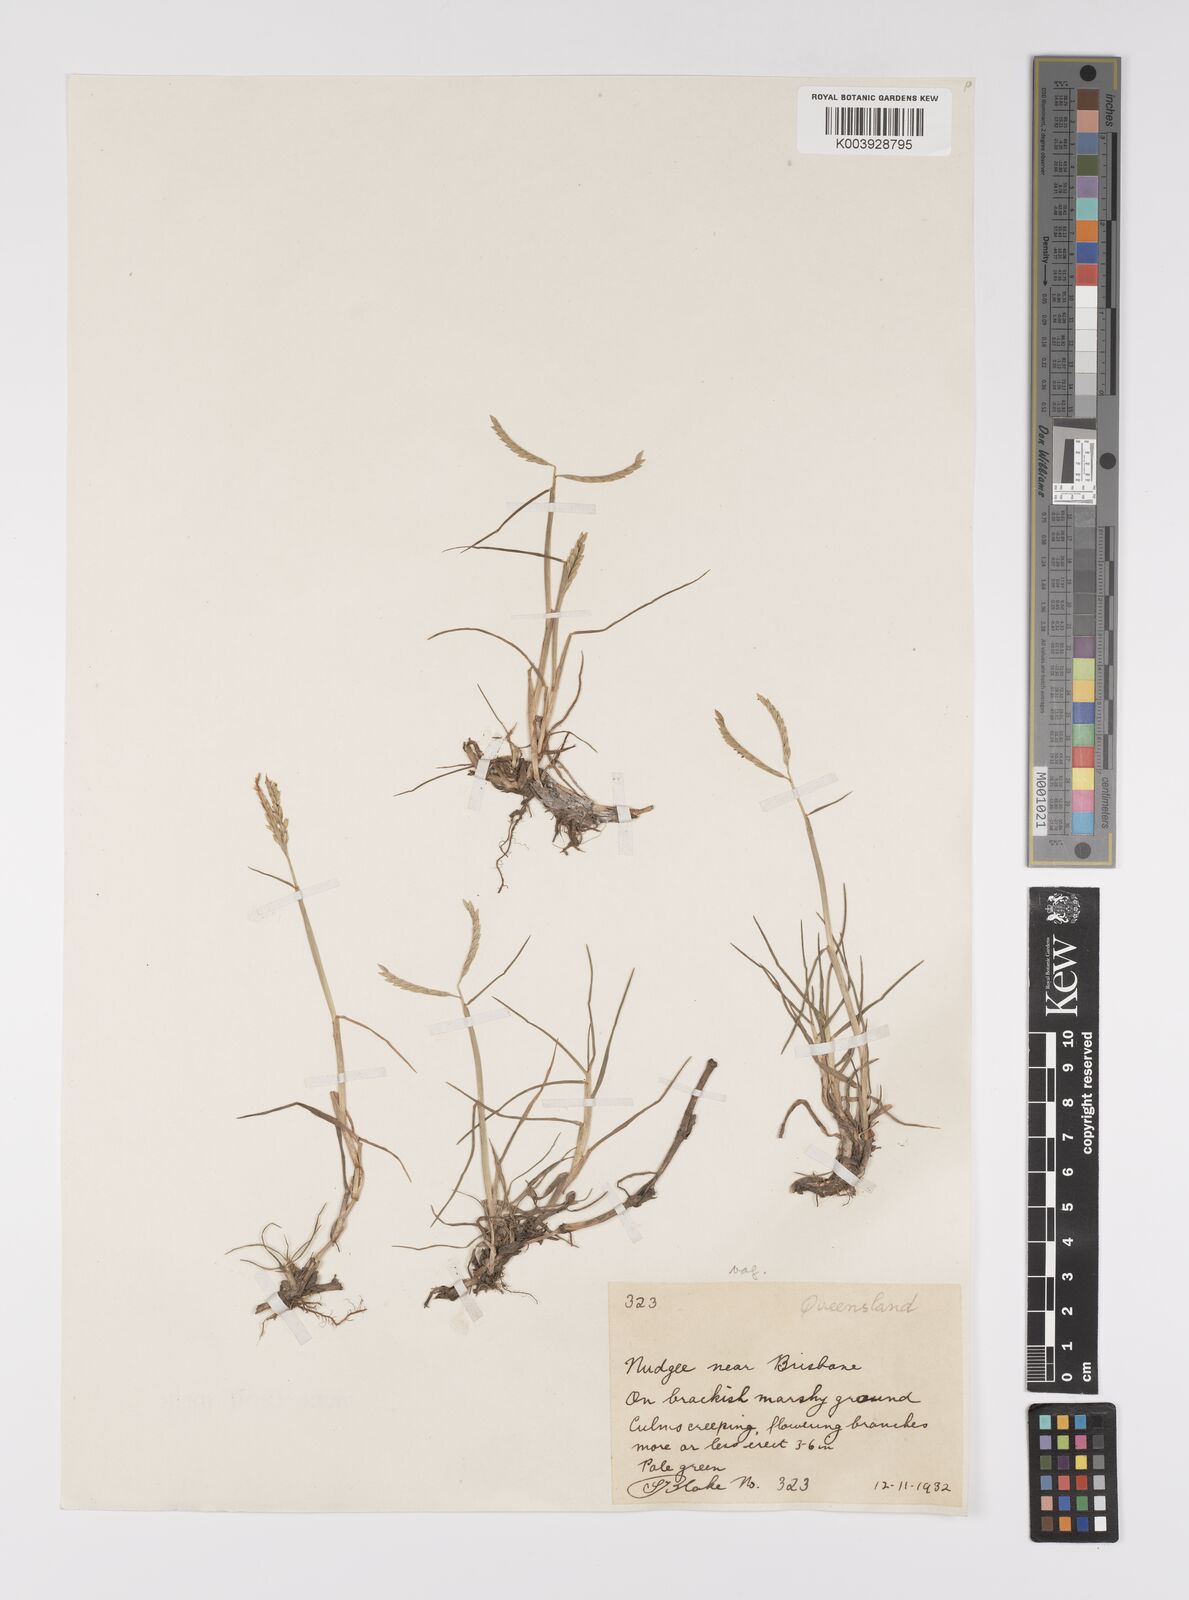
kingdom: Plantae
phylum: Tracheophyta
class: Liliopsida
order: Poales
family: Poaceae
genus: Paspalum
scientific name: Paspalum vaginatum
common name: Seashore paspalum
